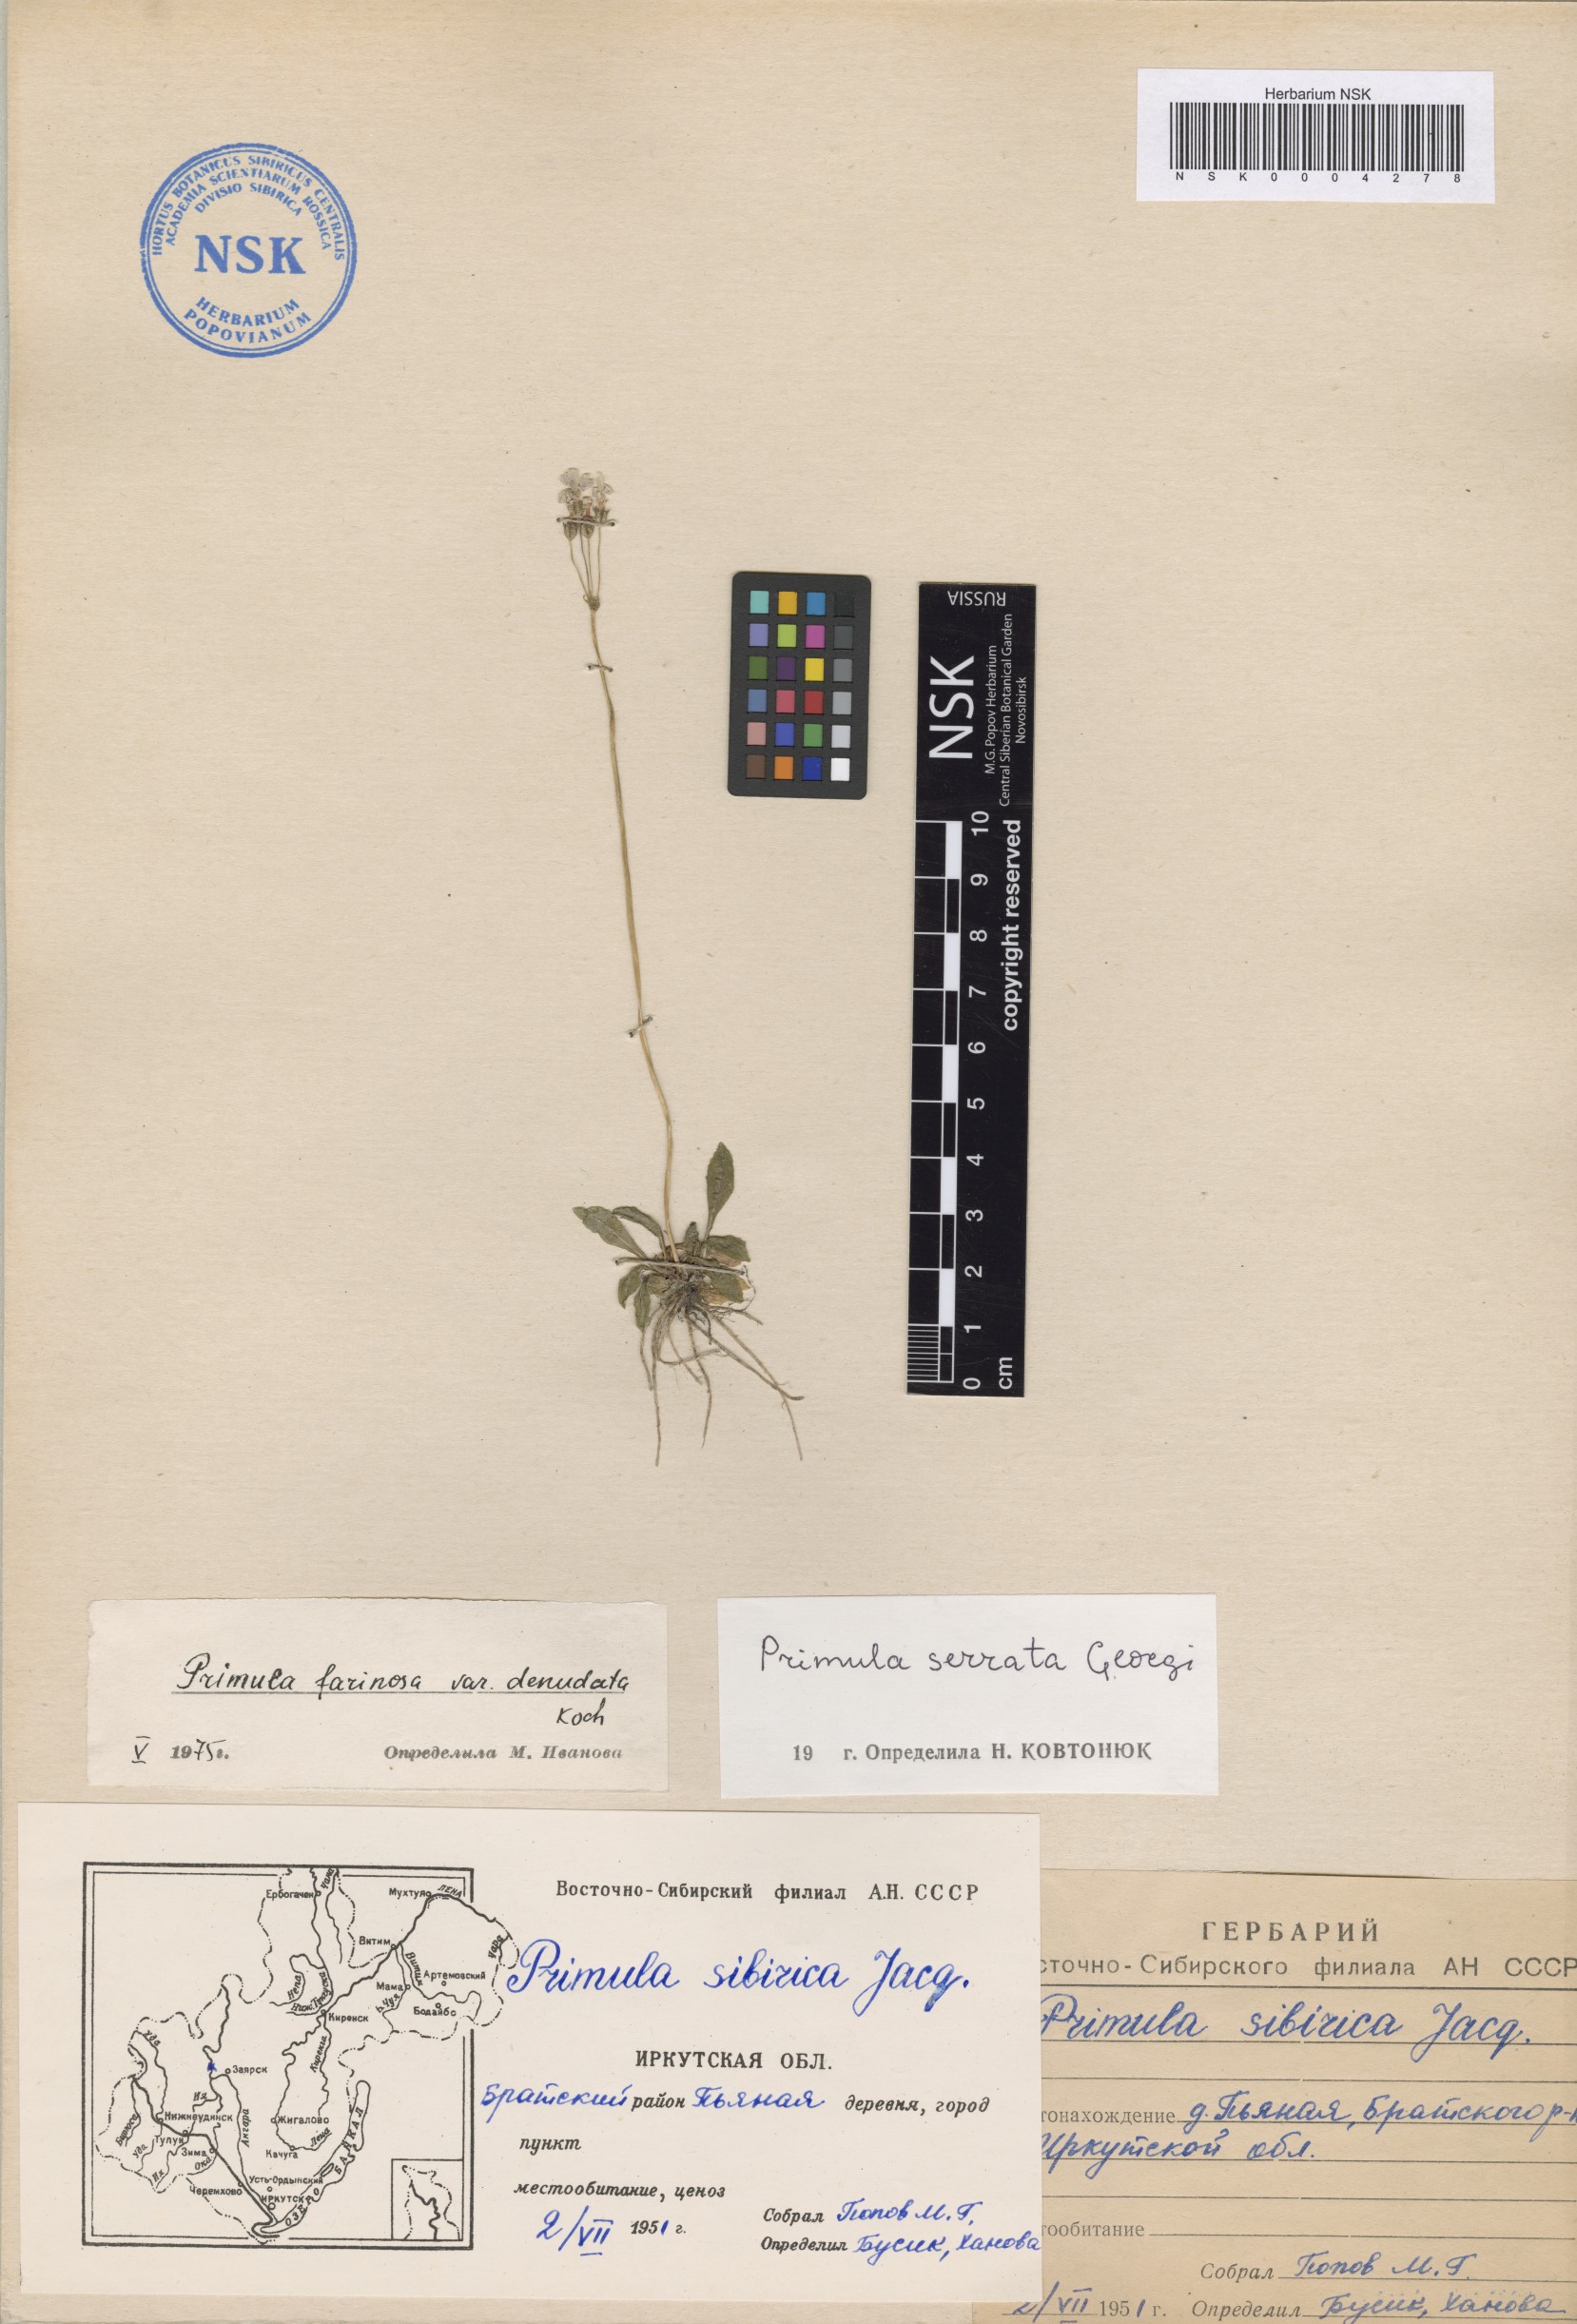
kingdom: Plantae
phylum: Tracheophyta
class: Magnoliopsida
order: Ericales
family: Primulaceae
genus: Primula
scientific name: Primula serrata
